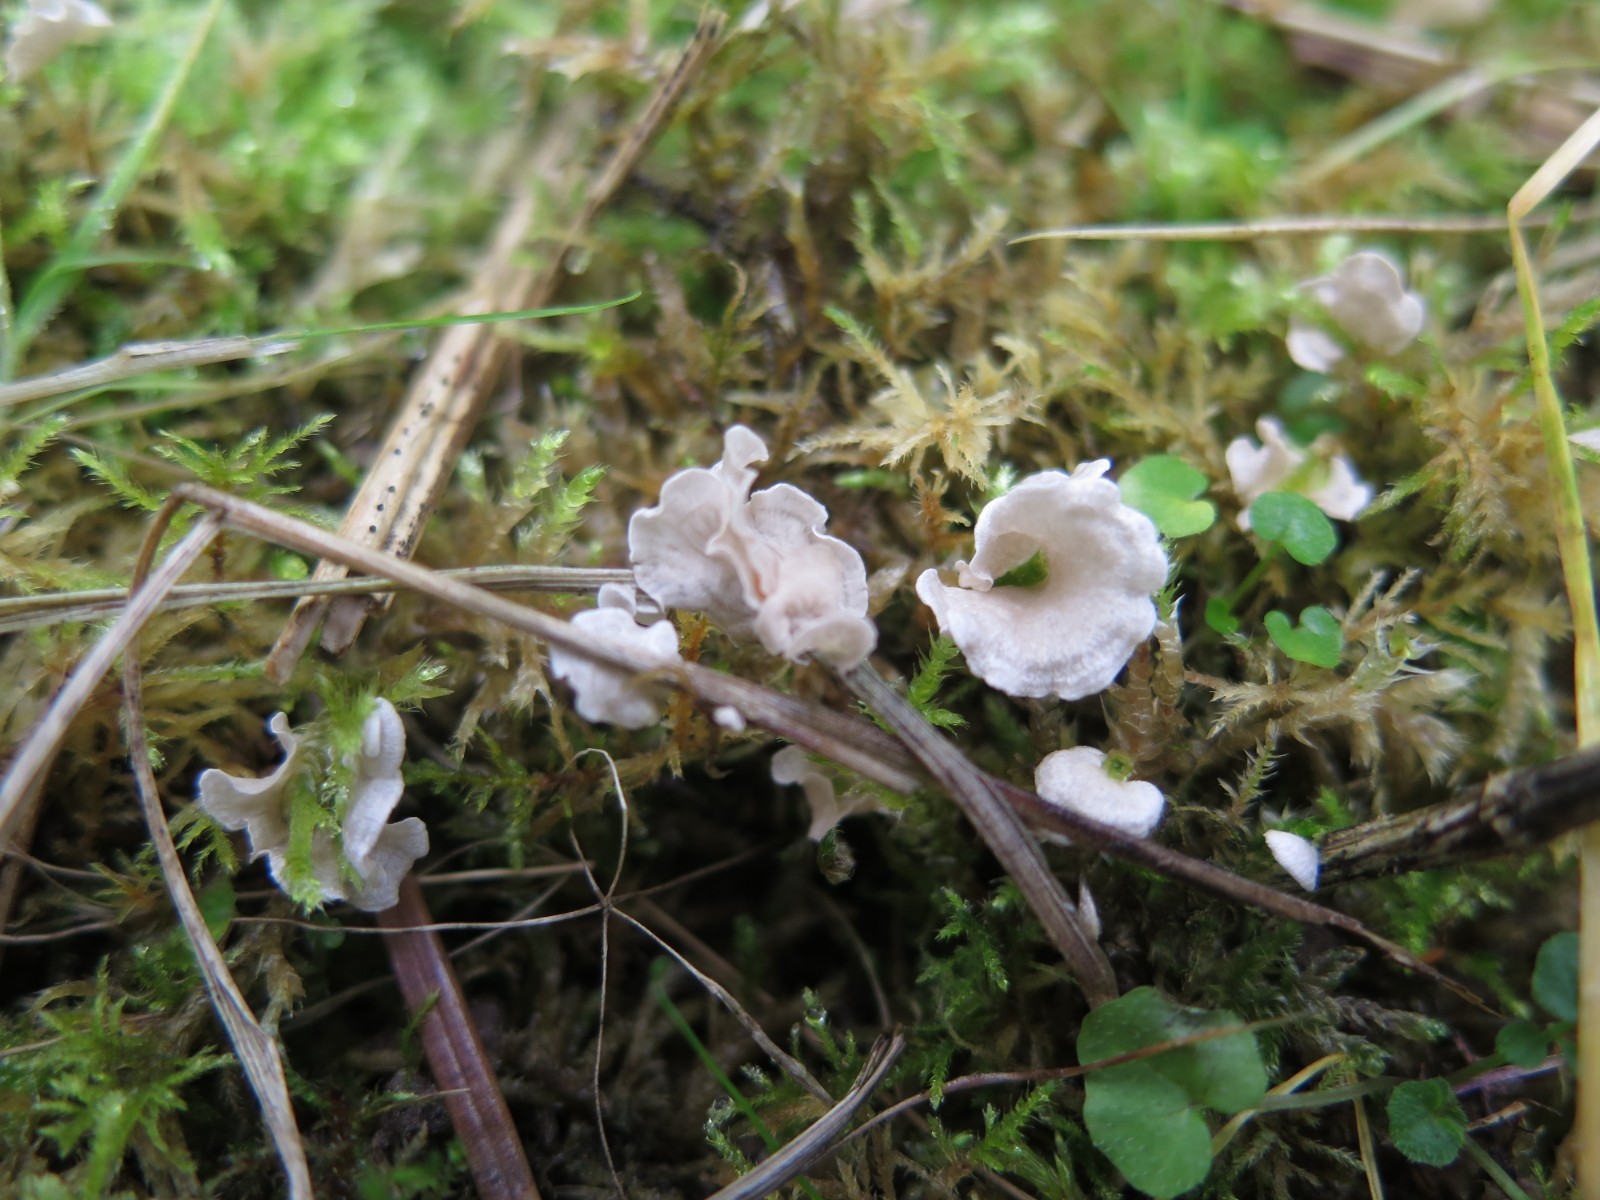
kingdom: Fungi
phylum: Basidiomycota
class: Agaricomycetes
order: Agaricales
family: Hygrophoraceae
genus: Arrhenia
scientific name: Arrhenia retiruga
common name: lille fontænehat
